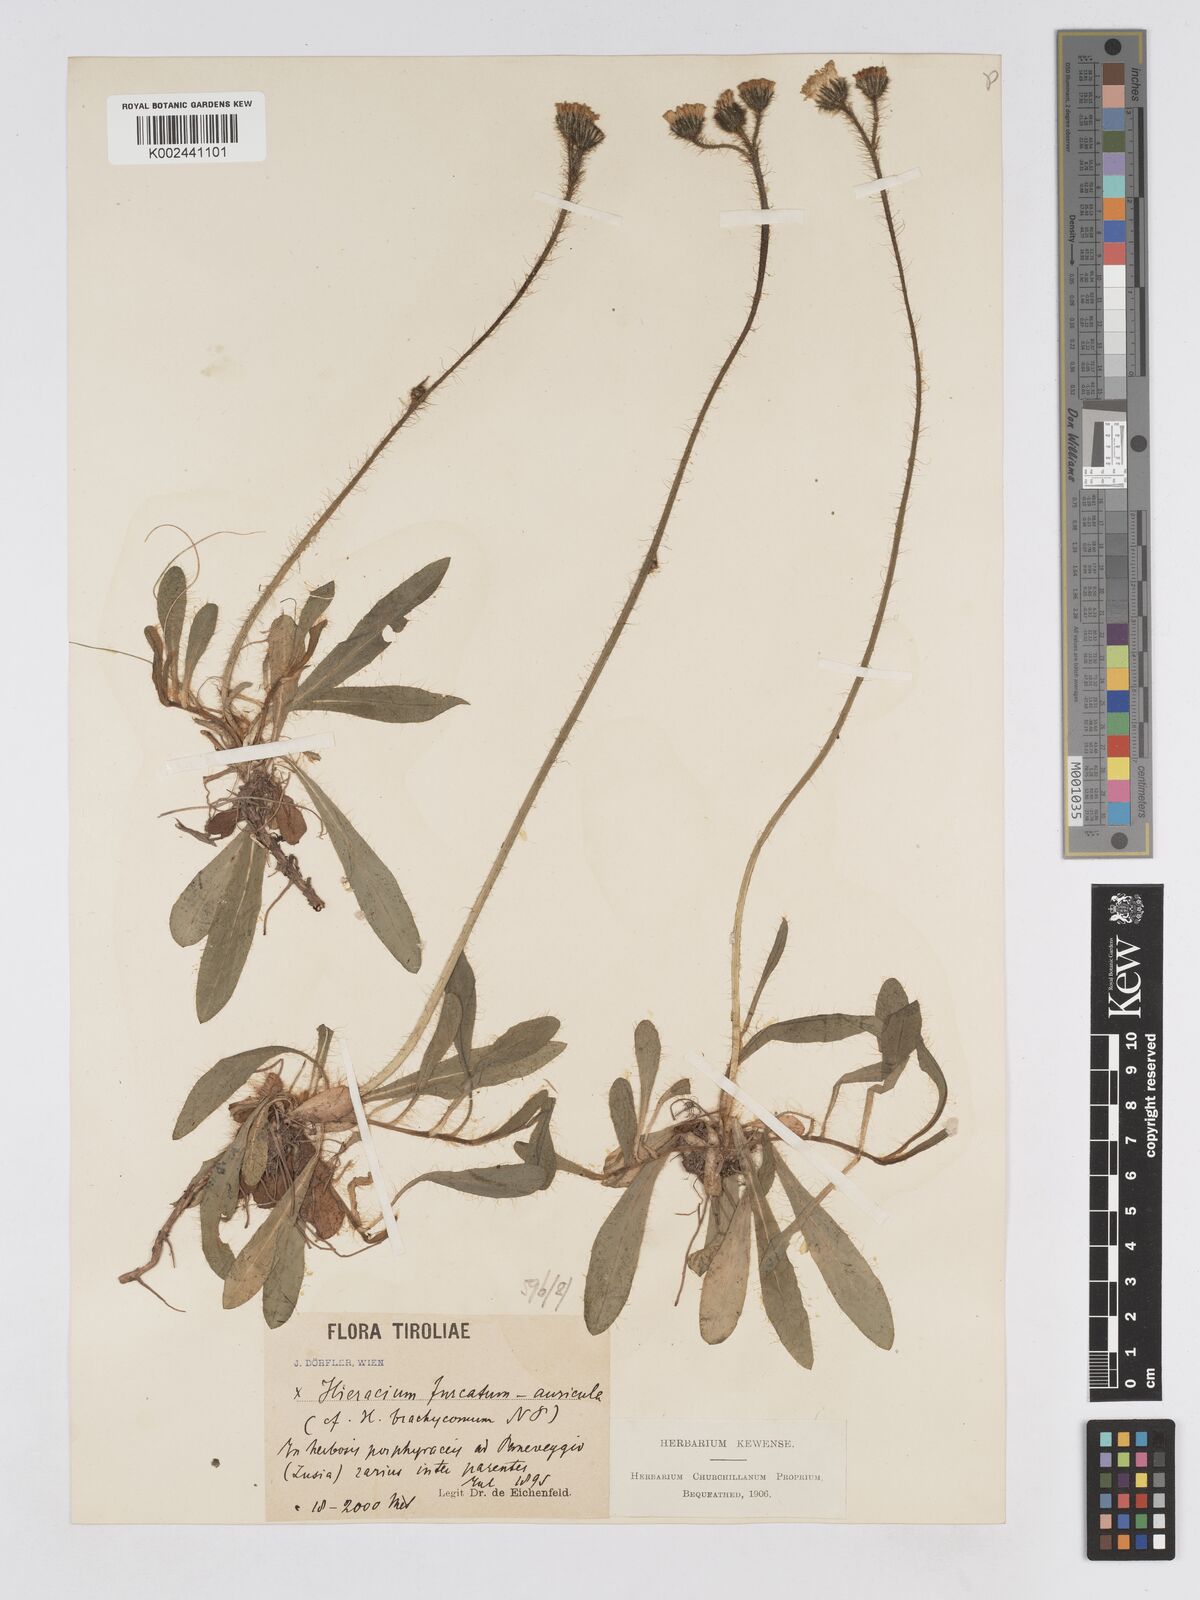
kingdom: Plantae
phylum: Tracheophyta
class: Magnoliopsida
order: Asterales
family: Asteraceae
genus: Pilosella
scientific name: Pilosella brachycoma
